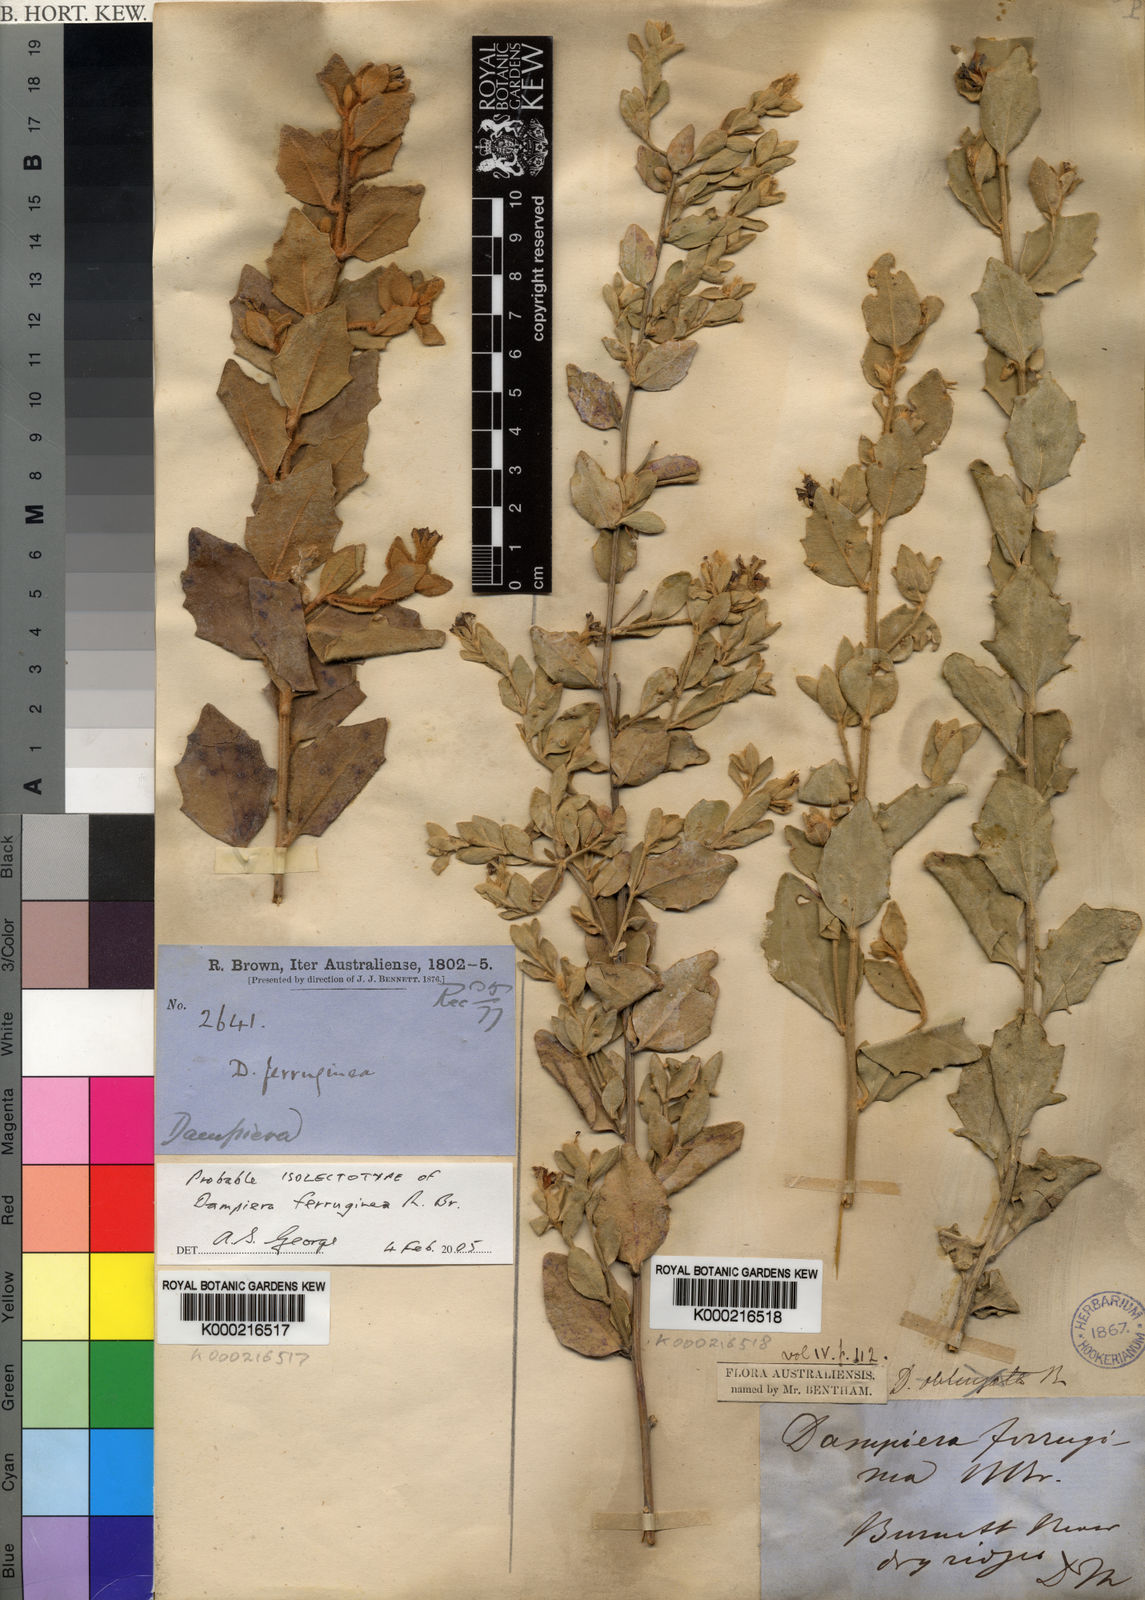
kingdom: Plantae
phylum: Tracheophyta
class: Magnoliopsida
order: Asterales
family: Goodeniaceae
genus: Dampiera
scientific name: Dampiera ferruginea
